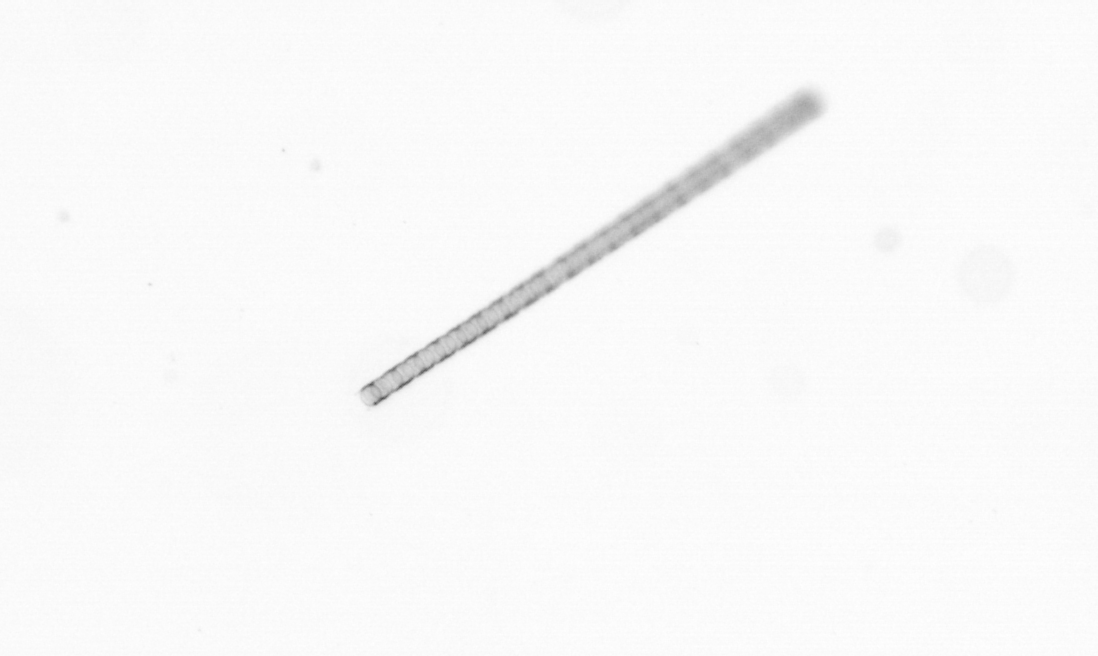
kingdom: Chromista
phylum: Ochrophyta
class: Bacillariophyceae
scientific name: Bacillariophyceae
